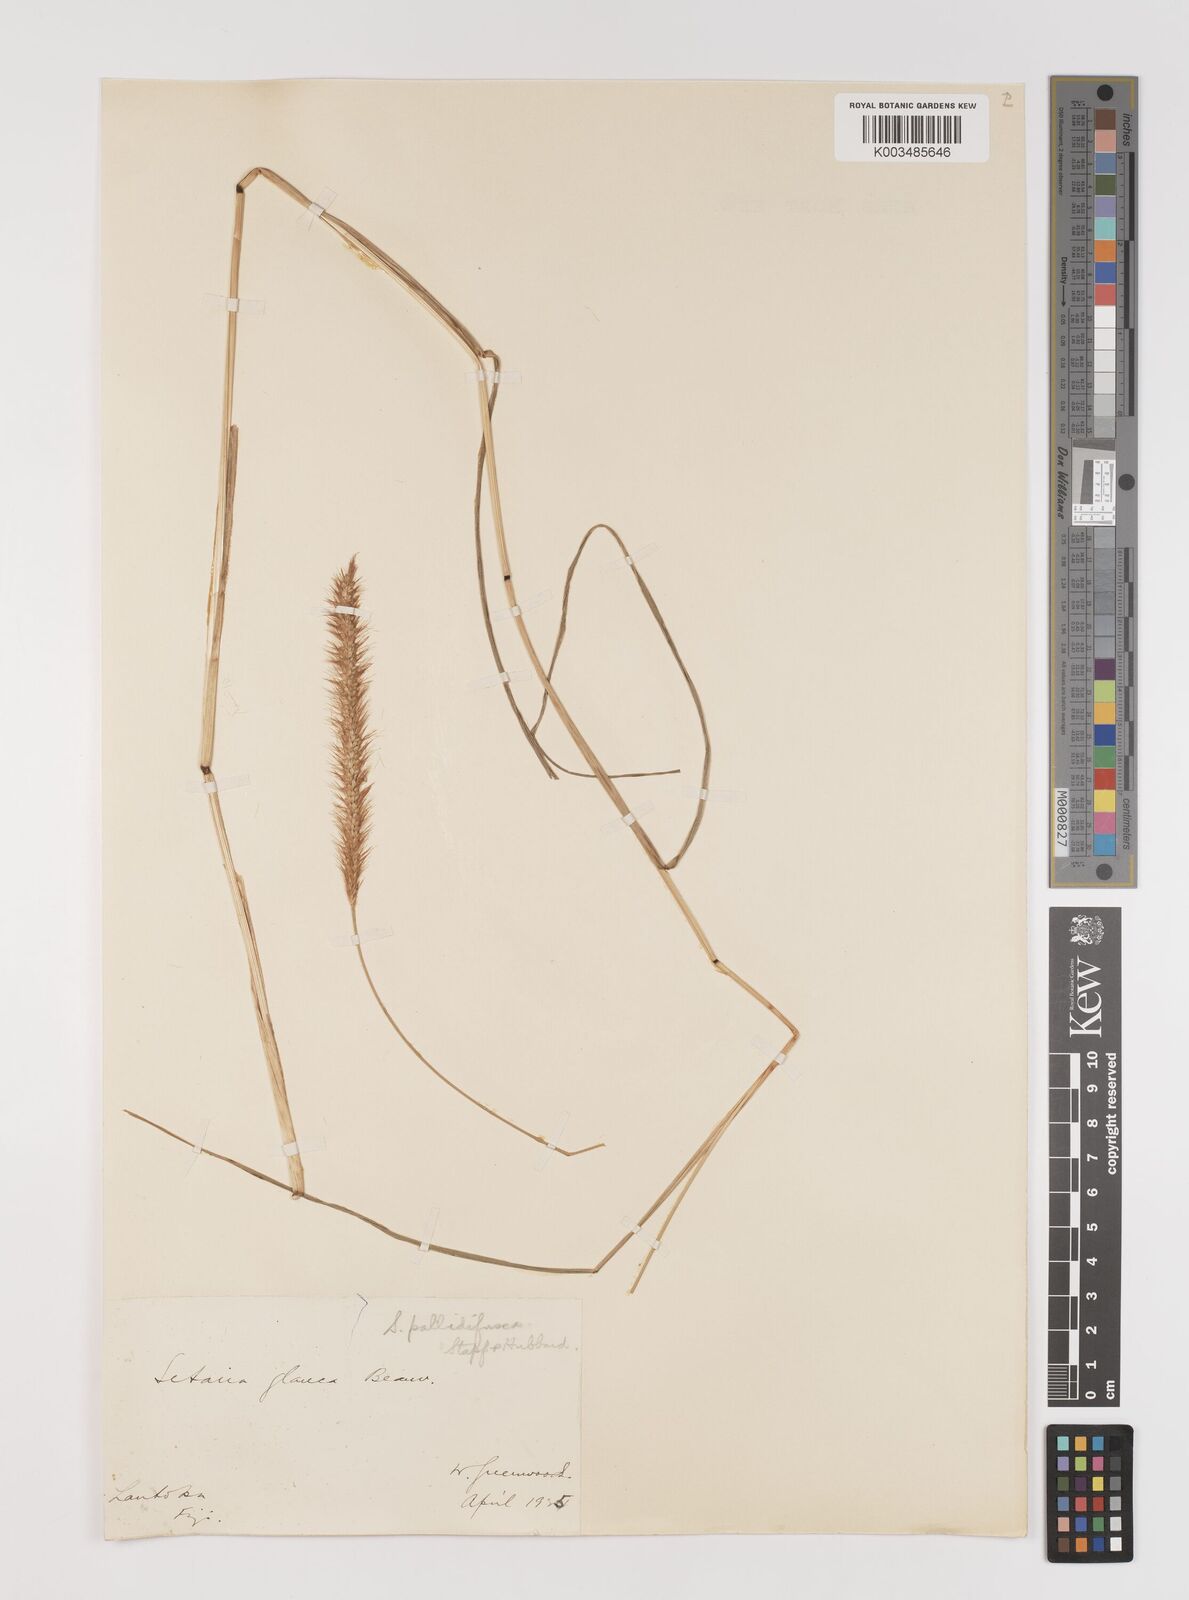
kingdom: Plantae
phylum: Tracheophyta
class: Liliopsida
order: Poales
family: Poaceae
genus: Setaria
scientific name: Setaria pumila
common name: Yellow bristle-grass
